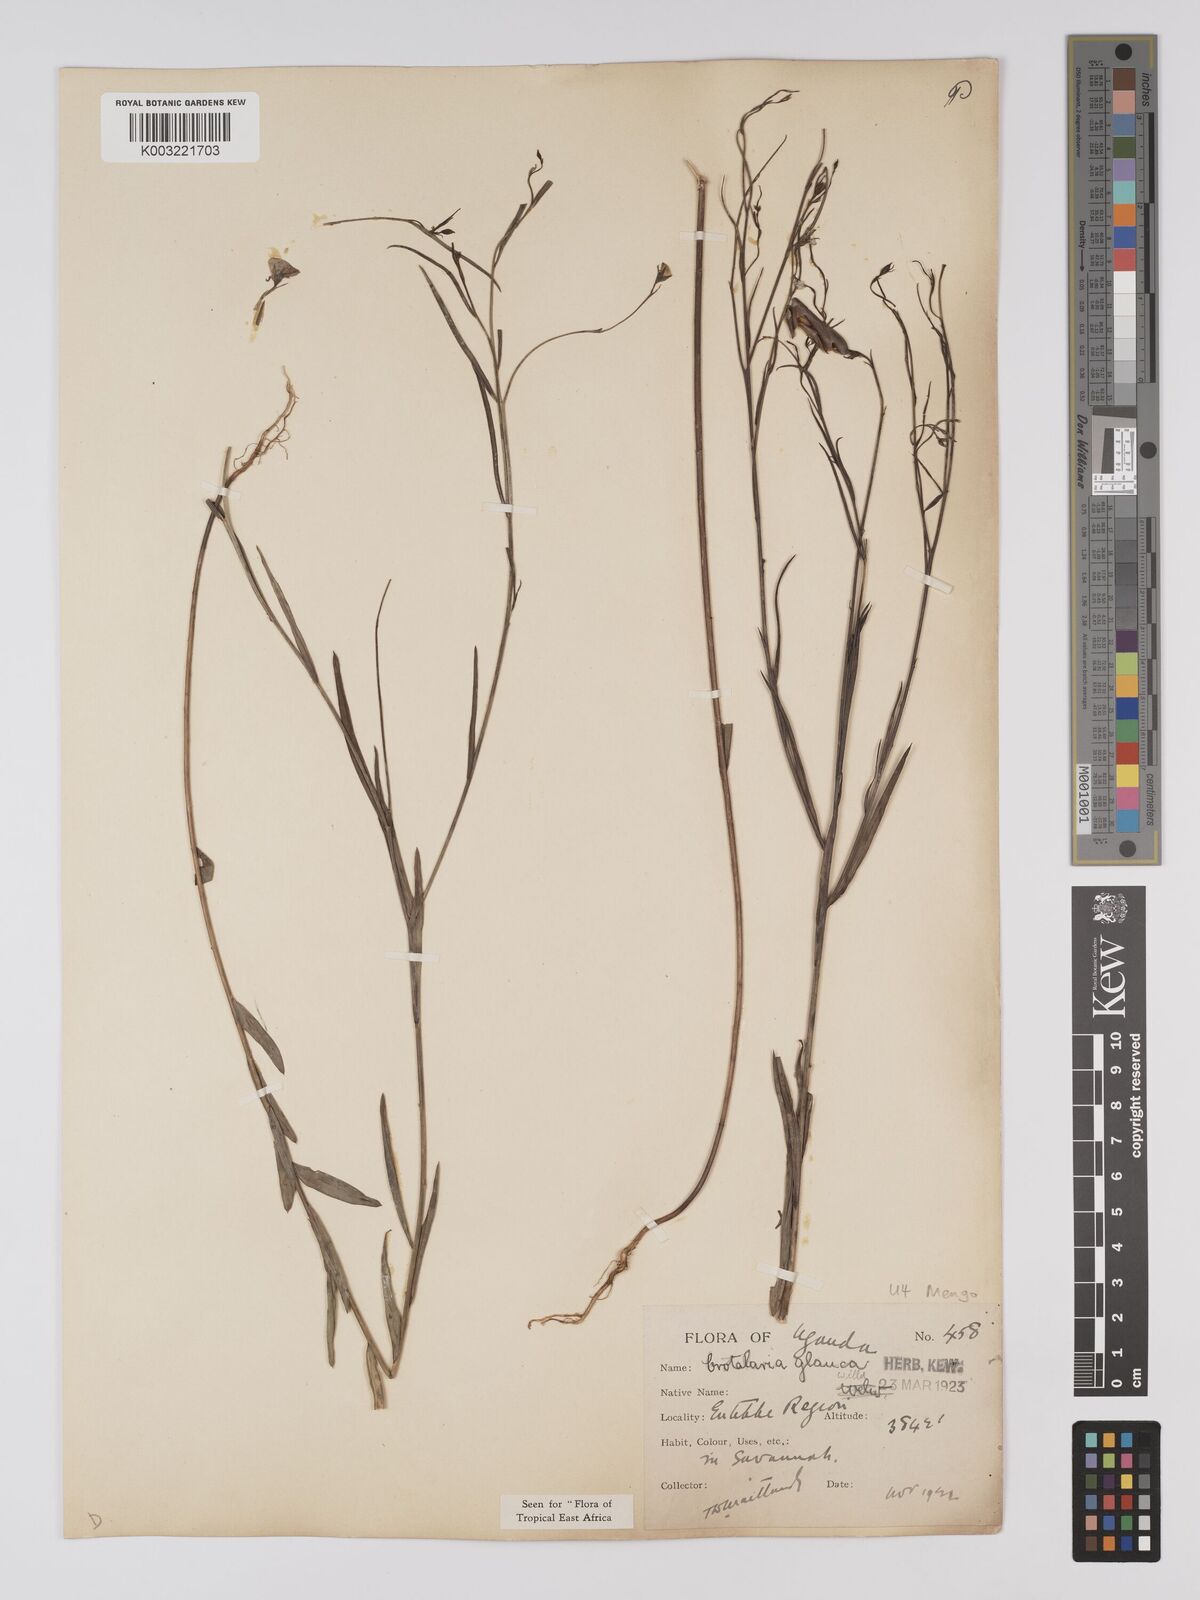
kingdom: Plantae
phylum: Tracheophyta
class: Magnoliopsida
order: Fabales
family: Fabaceae
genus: Crotalaria
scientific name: Crotalaria glauca
